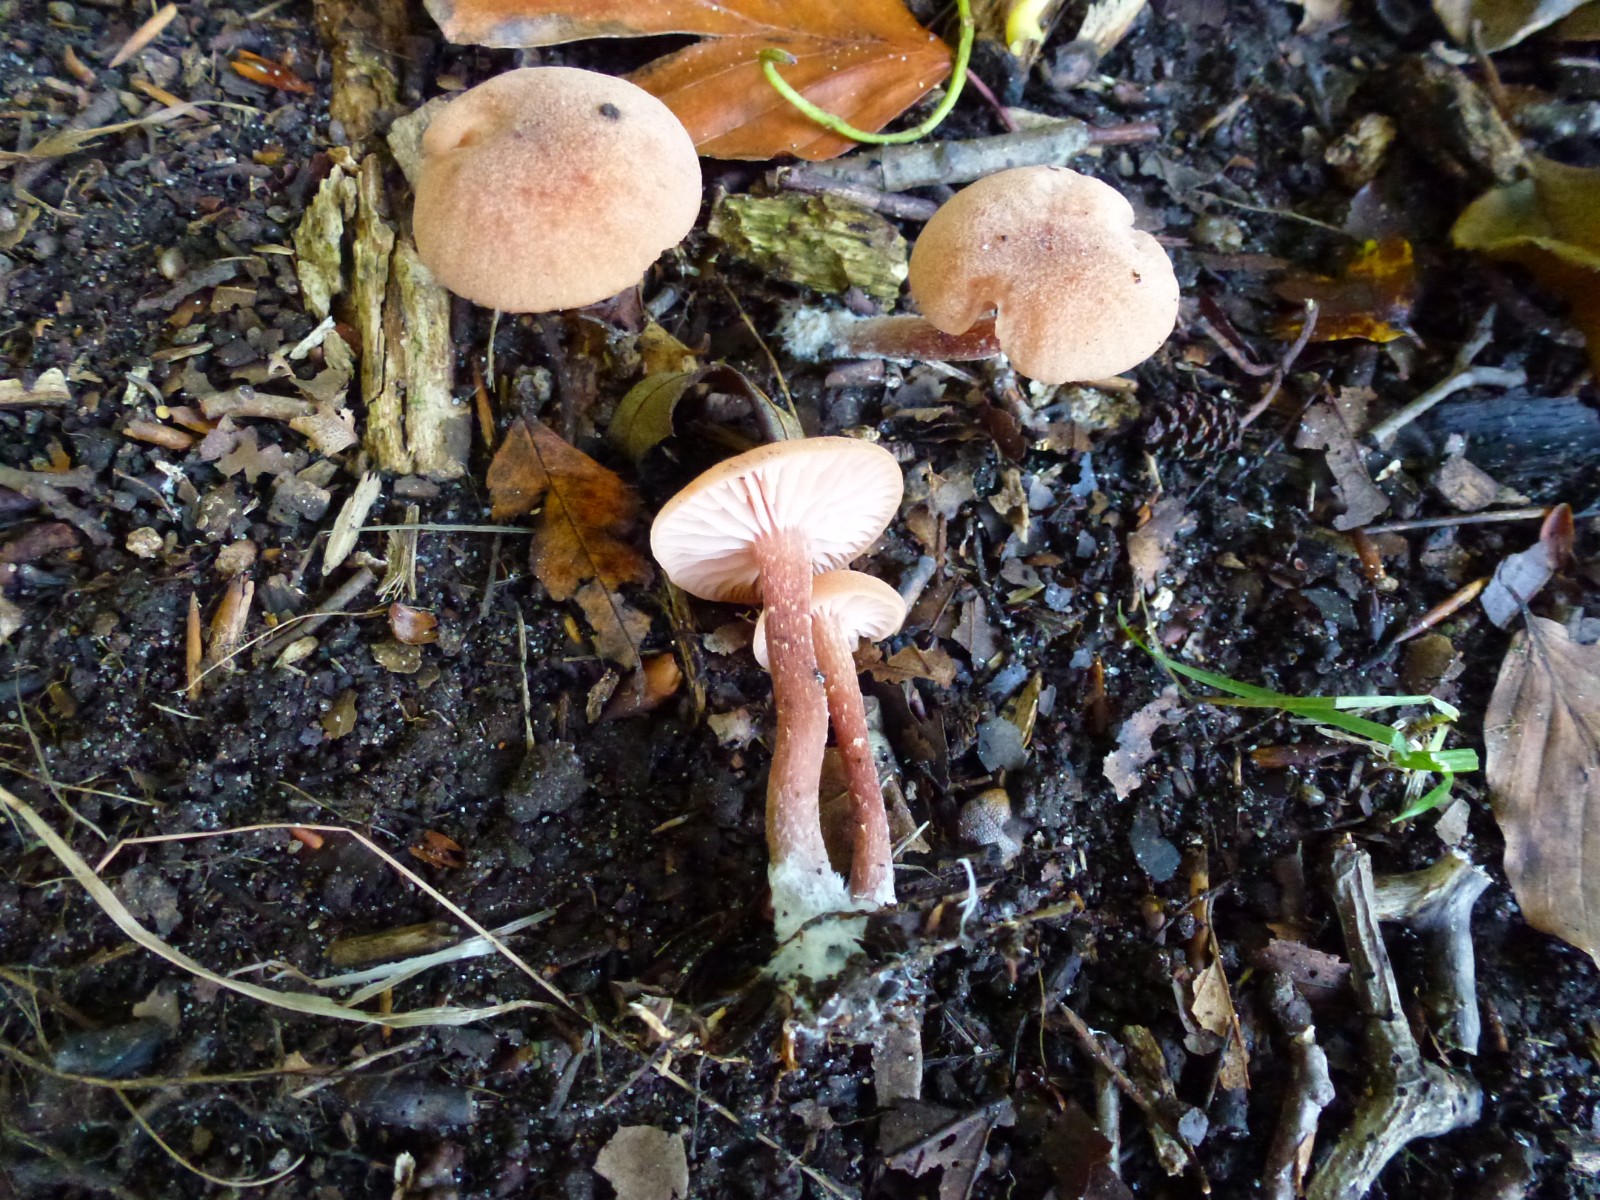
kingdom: Fungi
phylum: Basidiomycota
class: Agaricomycetes
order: Agaricales
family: Hydnangiaceae
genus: Laccaria
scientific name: Laccaria proxima
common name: stor ametysthat
